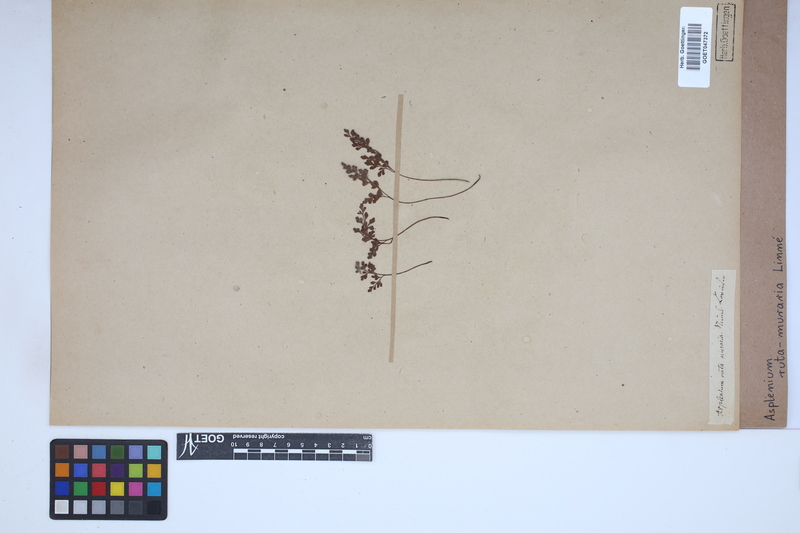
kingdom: Plantae
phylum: Tracheophyta
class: Polypodiopsida
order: Polypodiales
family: Aspleniaceae
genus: Asplenium
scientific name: Asplenium ruta-muraria
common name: Wall-rue
